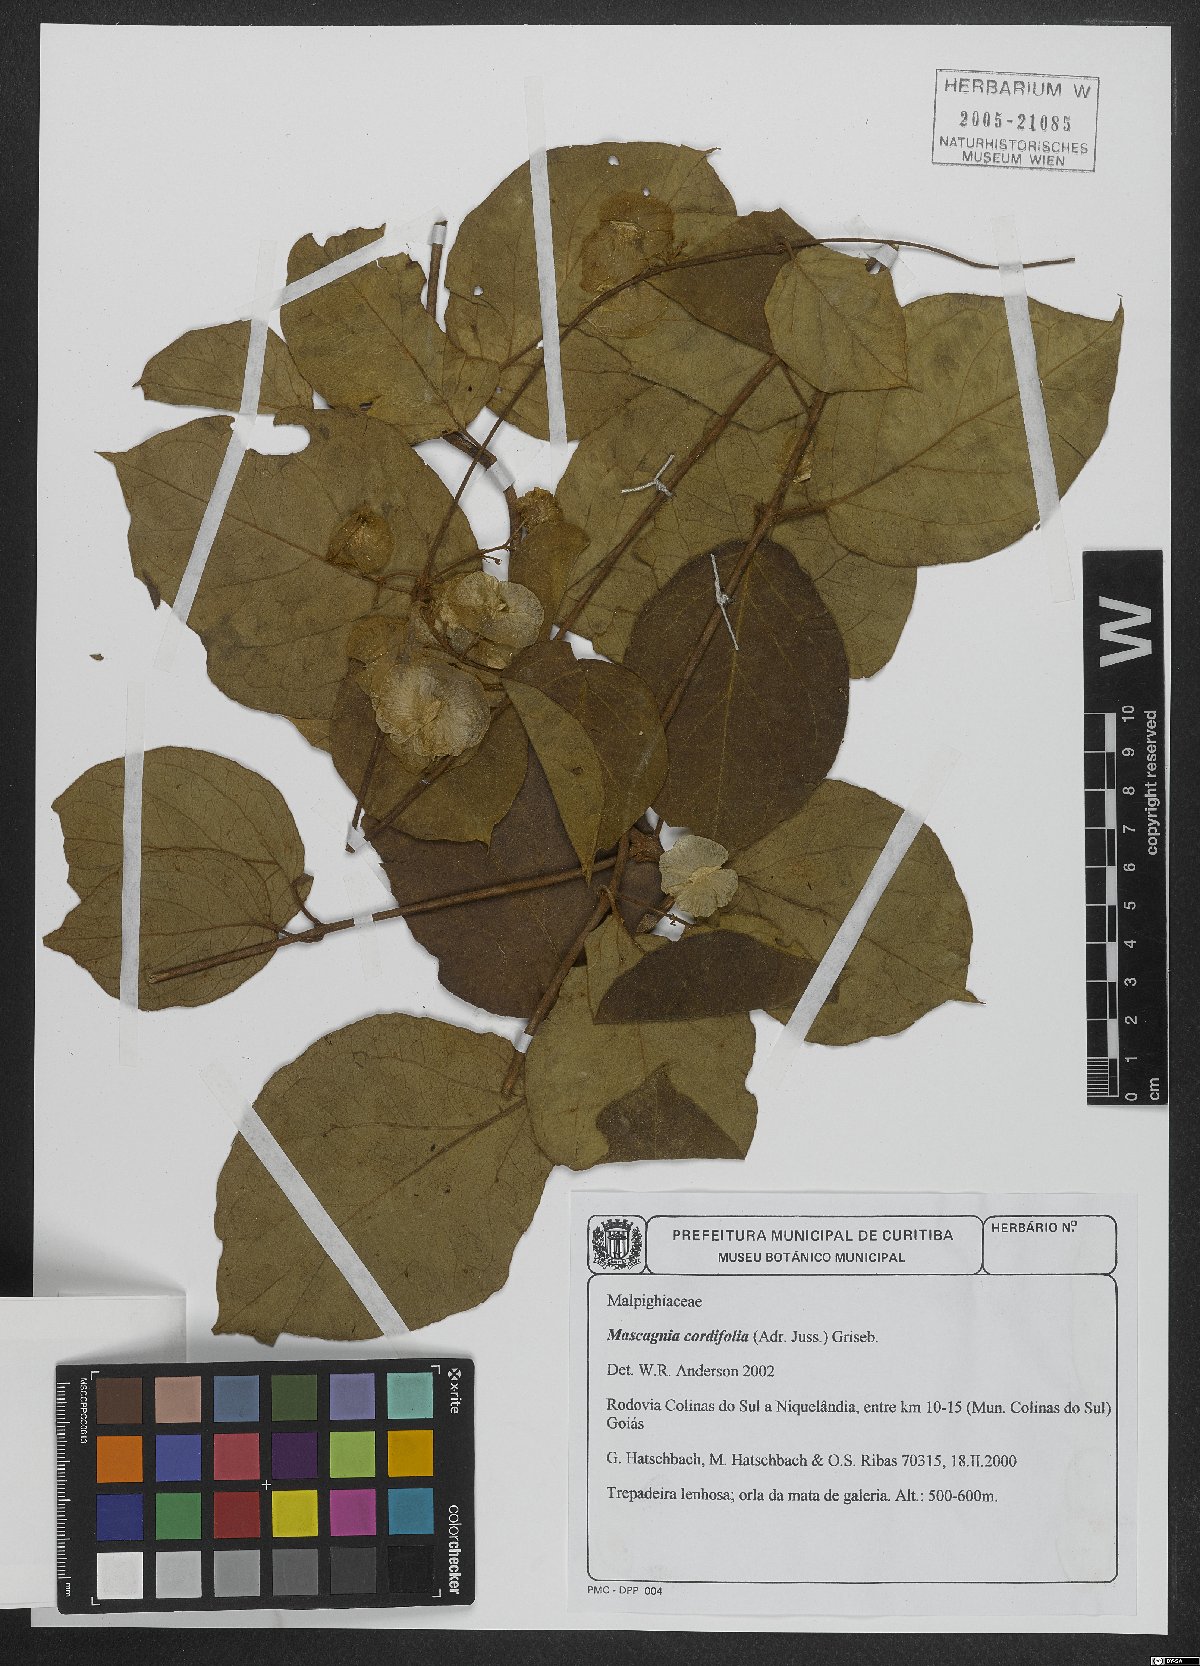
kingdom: Plantae
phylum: Tracheophyta
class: Magnoliopsida
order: Malpighiales
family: Malpighiaceae
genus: Mascagnia
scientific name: Mascagnia cordifolia
